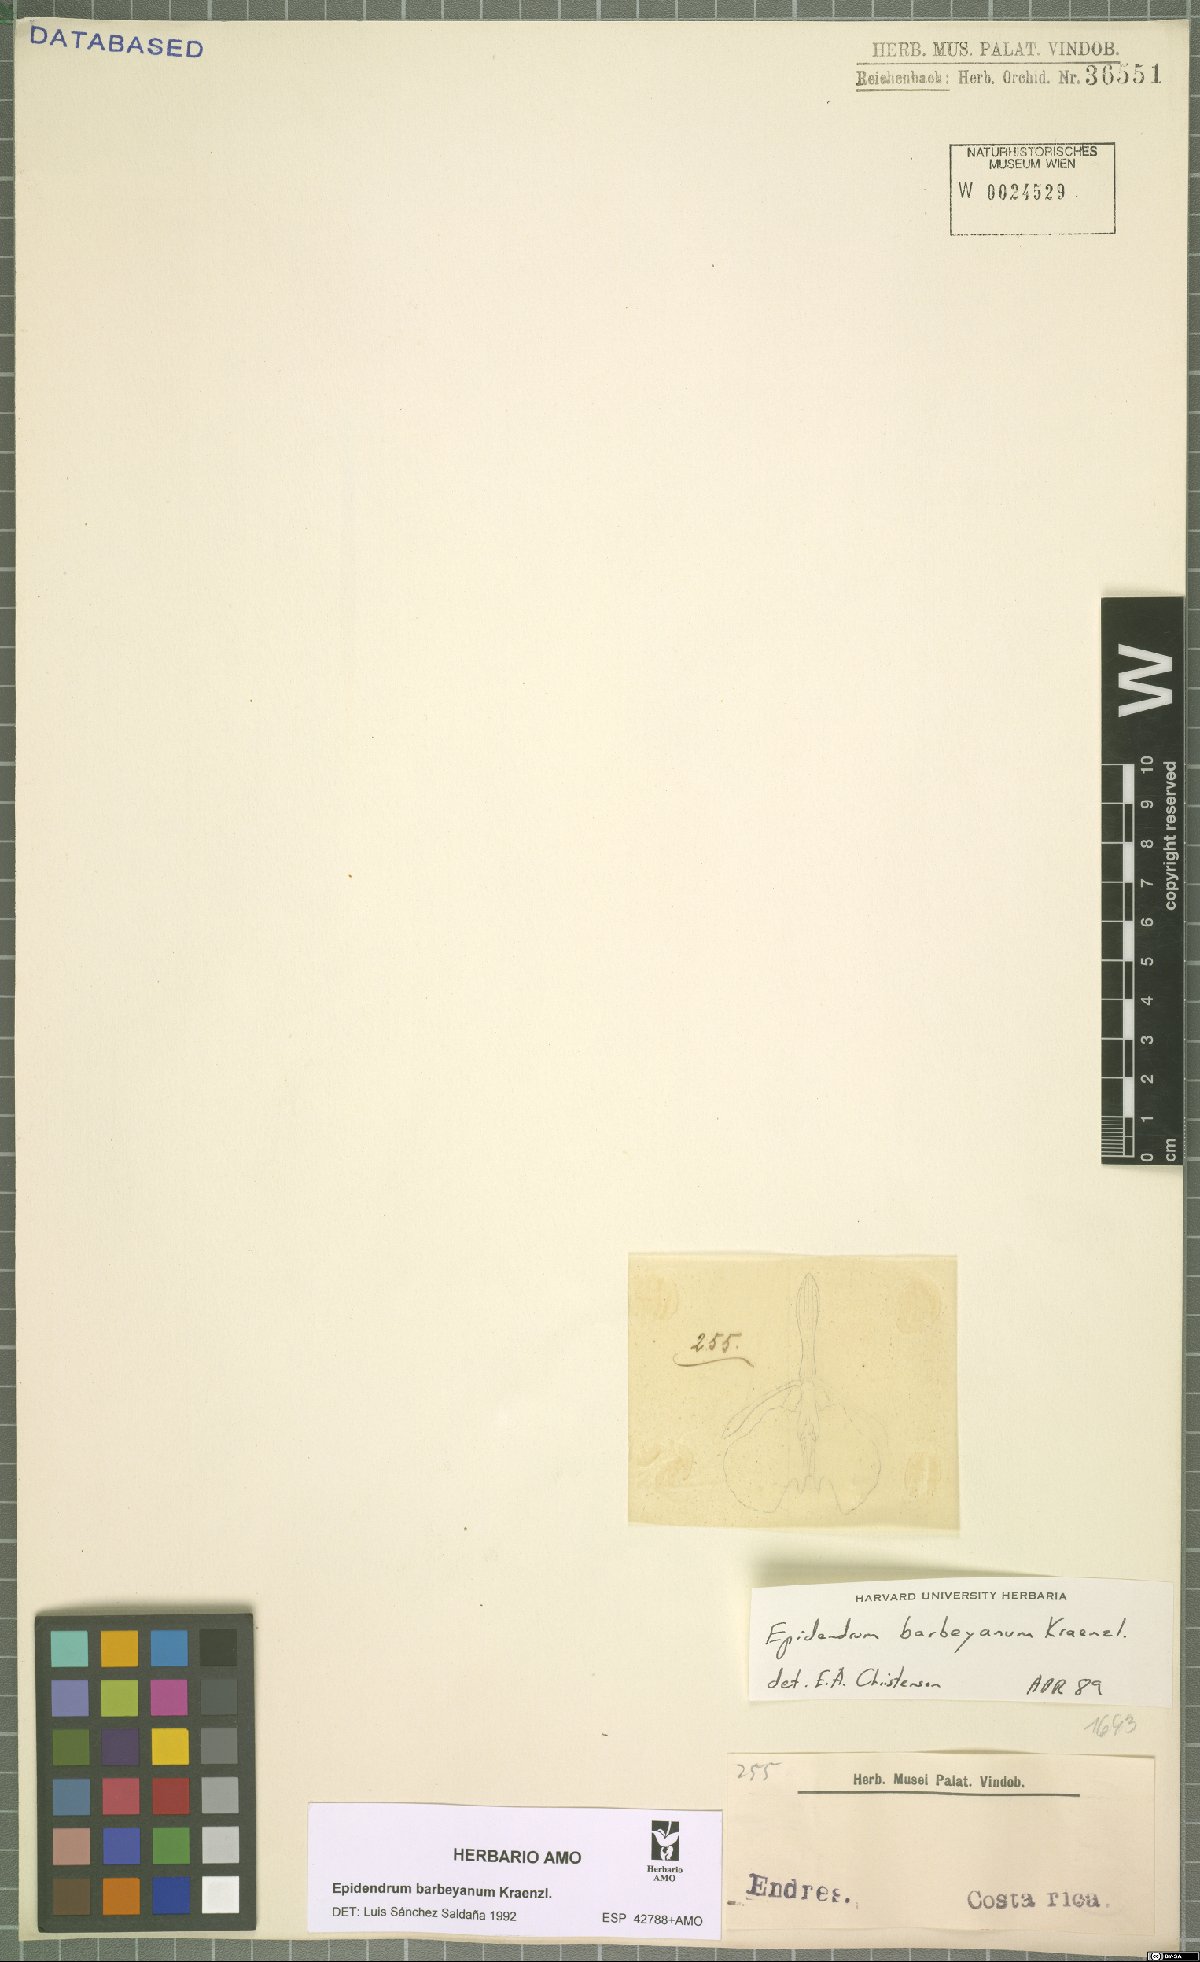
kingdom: Plantae
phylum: Tracheophyta
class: Liliopsida
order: Asparagales
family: Orchidaceae
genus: Epidendrum
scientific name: Epidendrum barbeyanum
